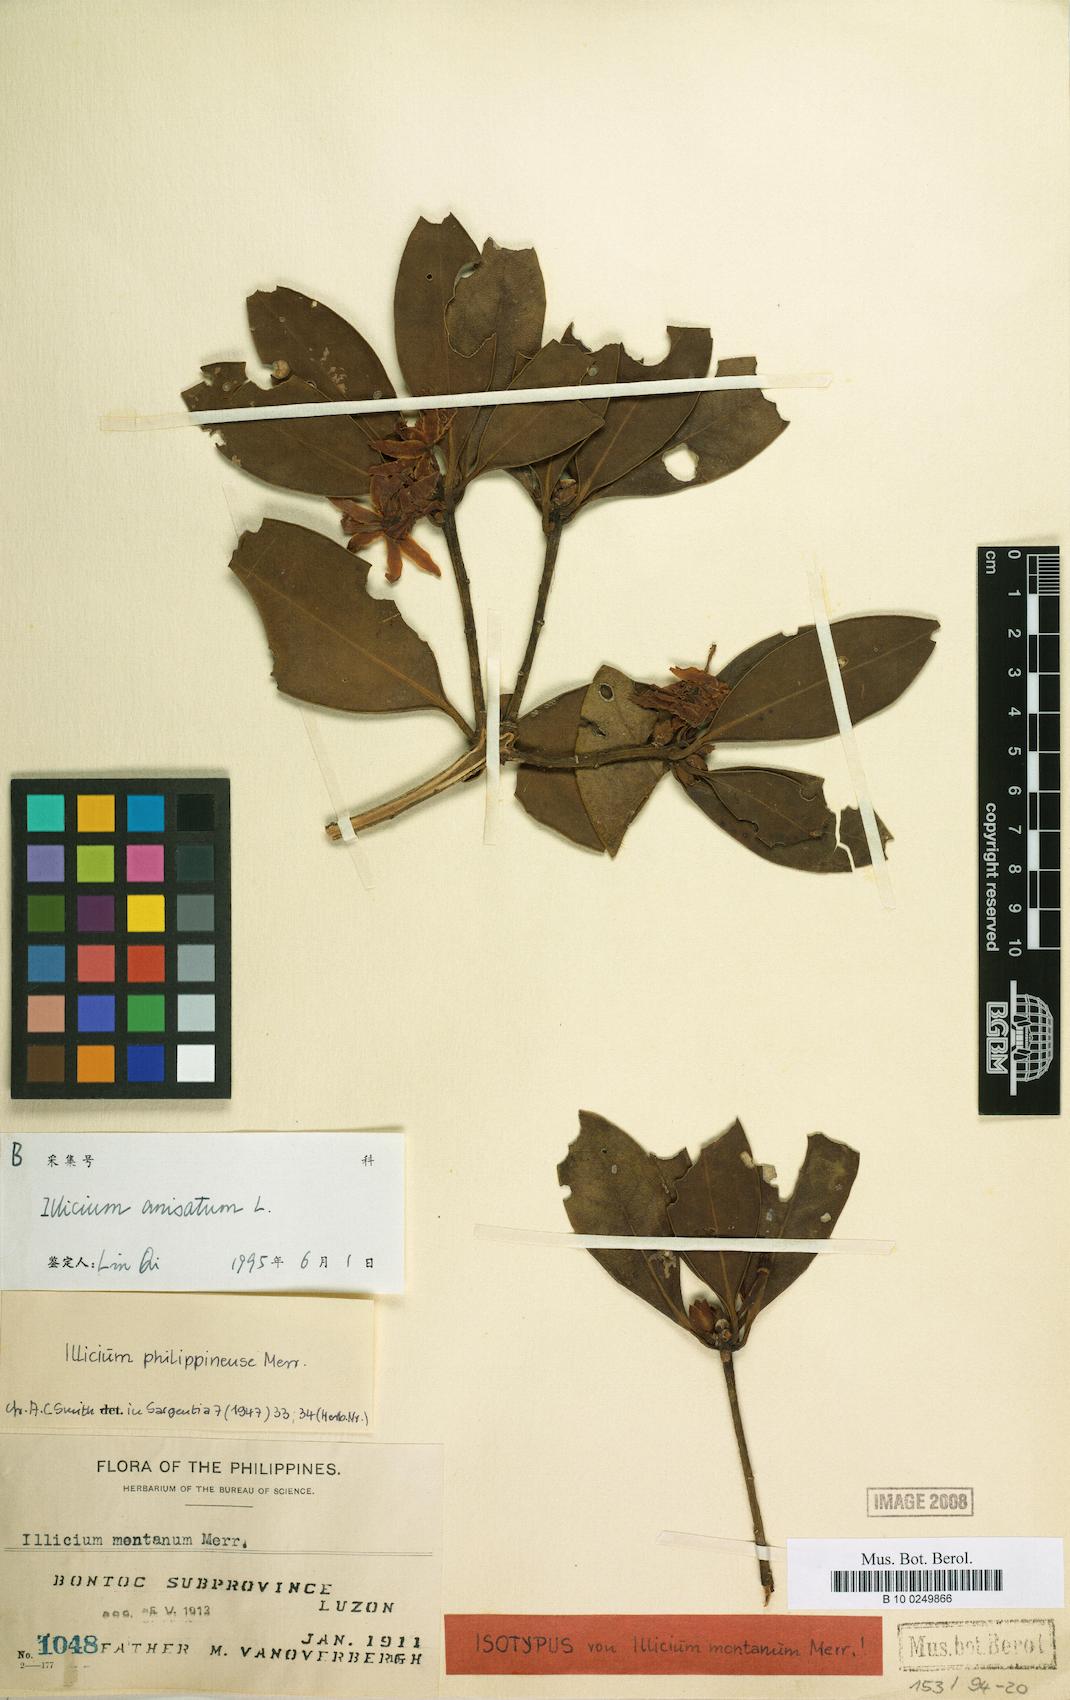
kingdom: Plantae
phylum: Tracheophyta
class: Magnoliopsida
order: Austrobaileyales
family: Schisandraceae
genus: Illicium
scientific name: Illicium anisatum
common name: Sacred anisetree
